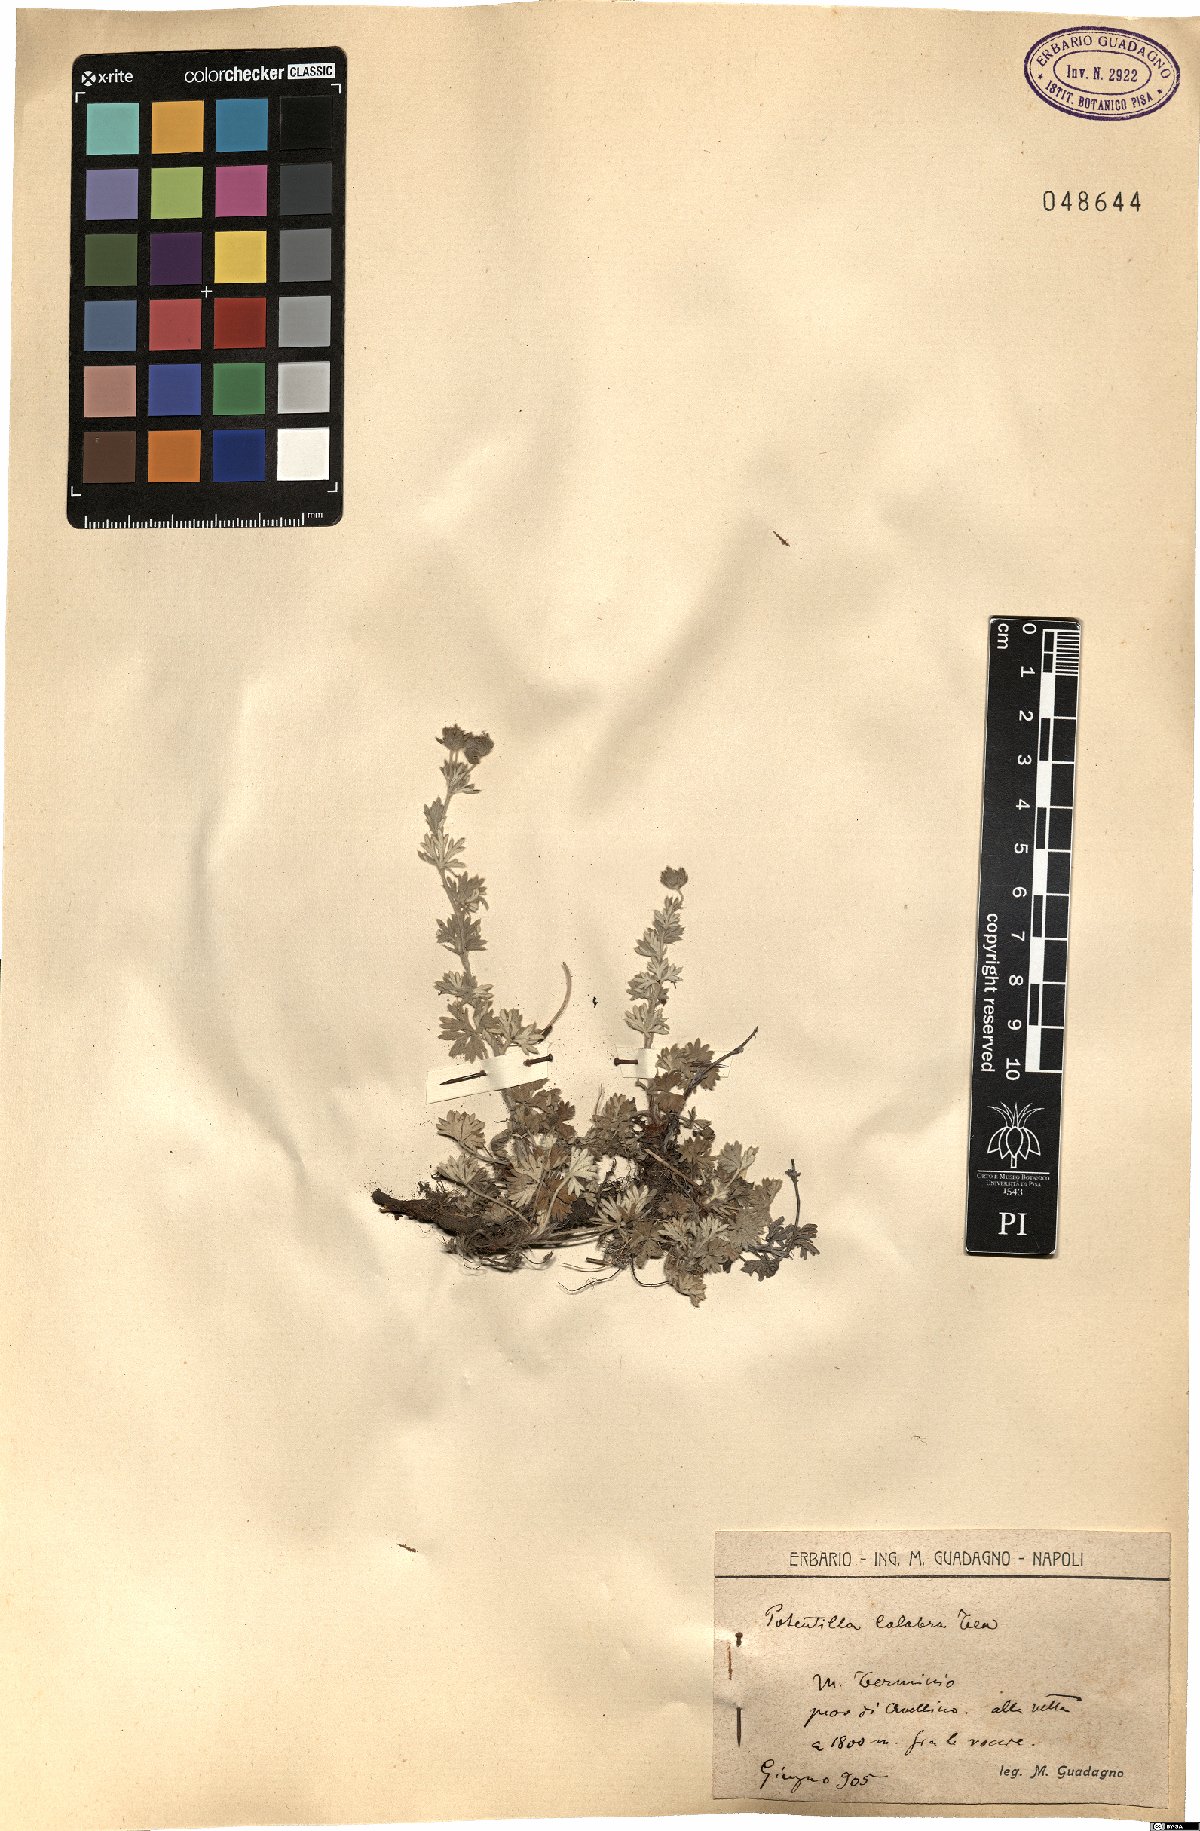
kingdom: Plantae
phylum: Tracheophyta
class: Magnoliopsida
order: Rosales
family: Rosaceae
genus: Potentilla
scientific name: Potentilla calabra
